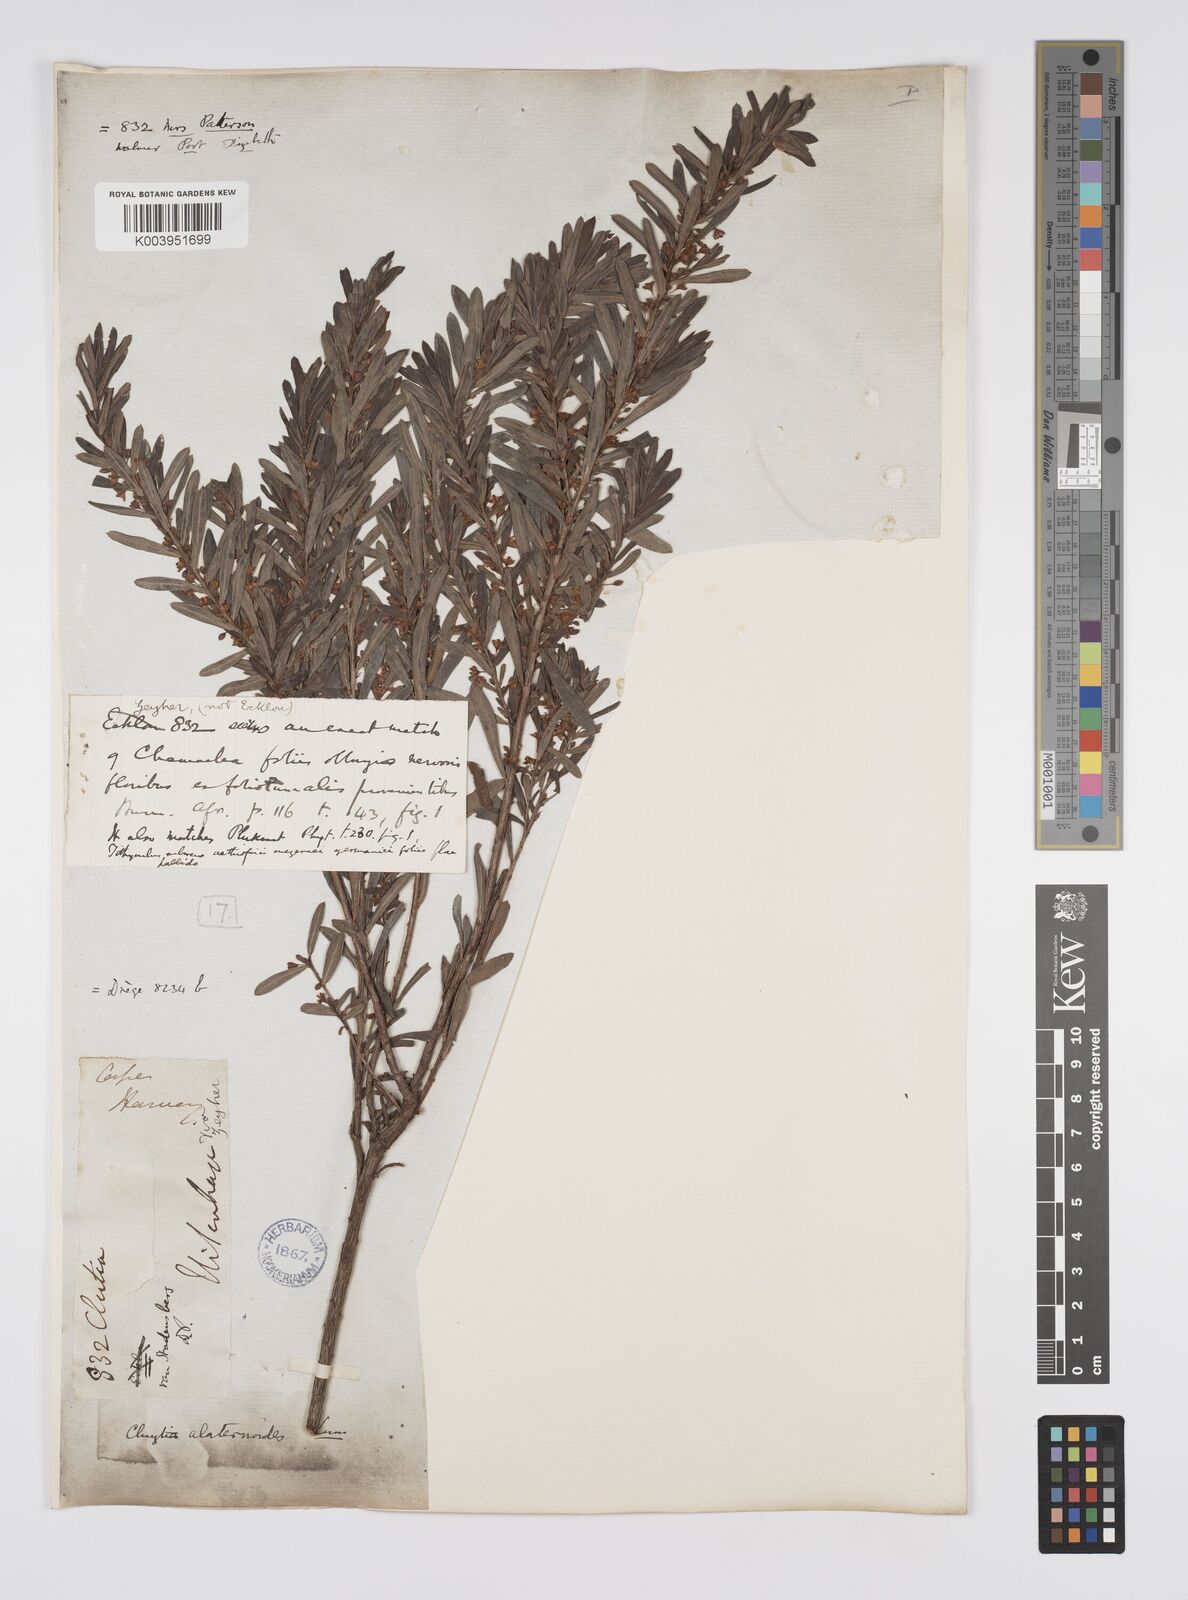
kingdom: Plantae
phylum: Tracheophyta
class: Magnoliopsida
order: Malpighiales
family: Peraceae
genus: Clutia
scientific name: Clutia alaternoides
